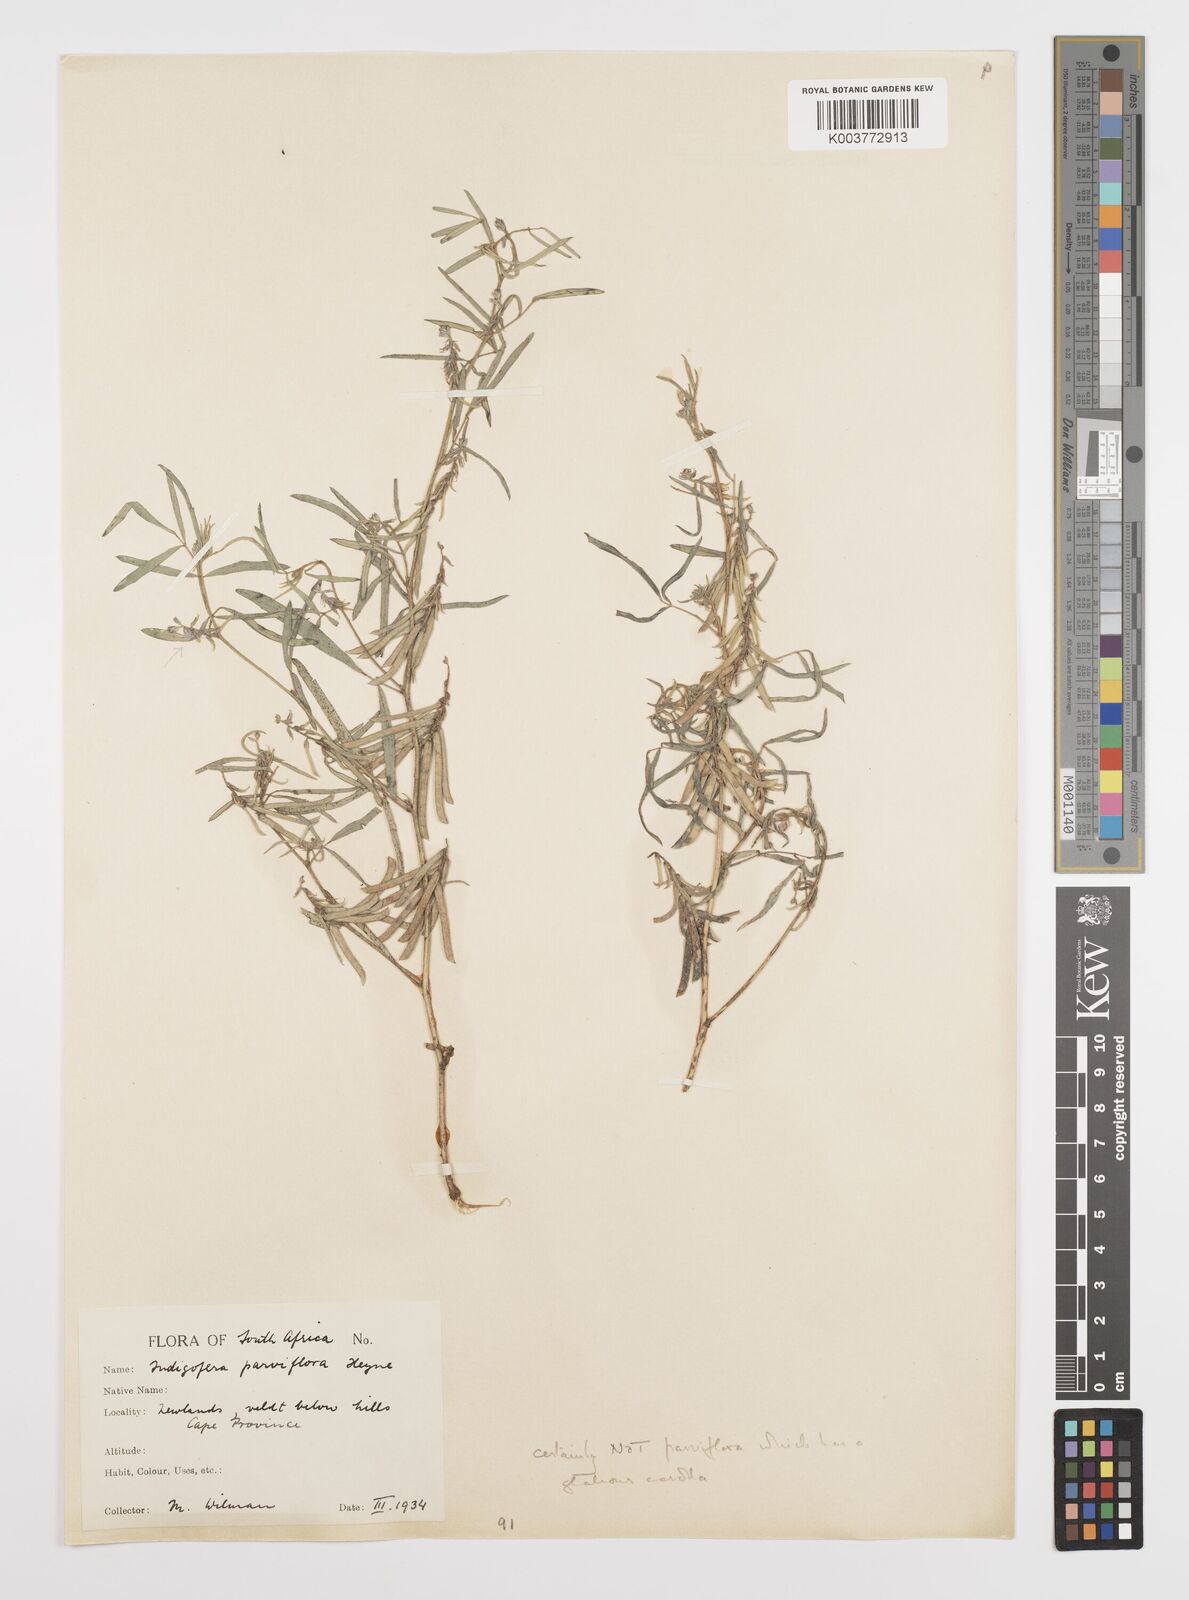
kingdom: Plantae
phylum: Tracheophyta
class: Magnoliopsida
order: Fabales
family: Fabaceae
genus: Indigofera
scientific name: Indigofera charlieriana
